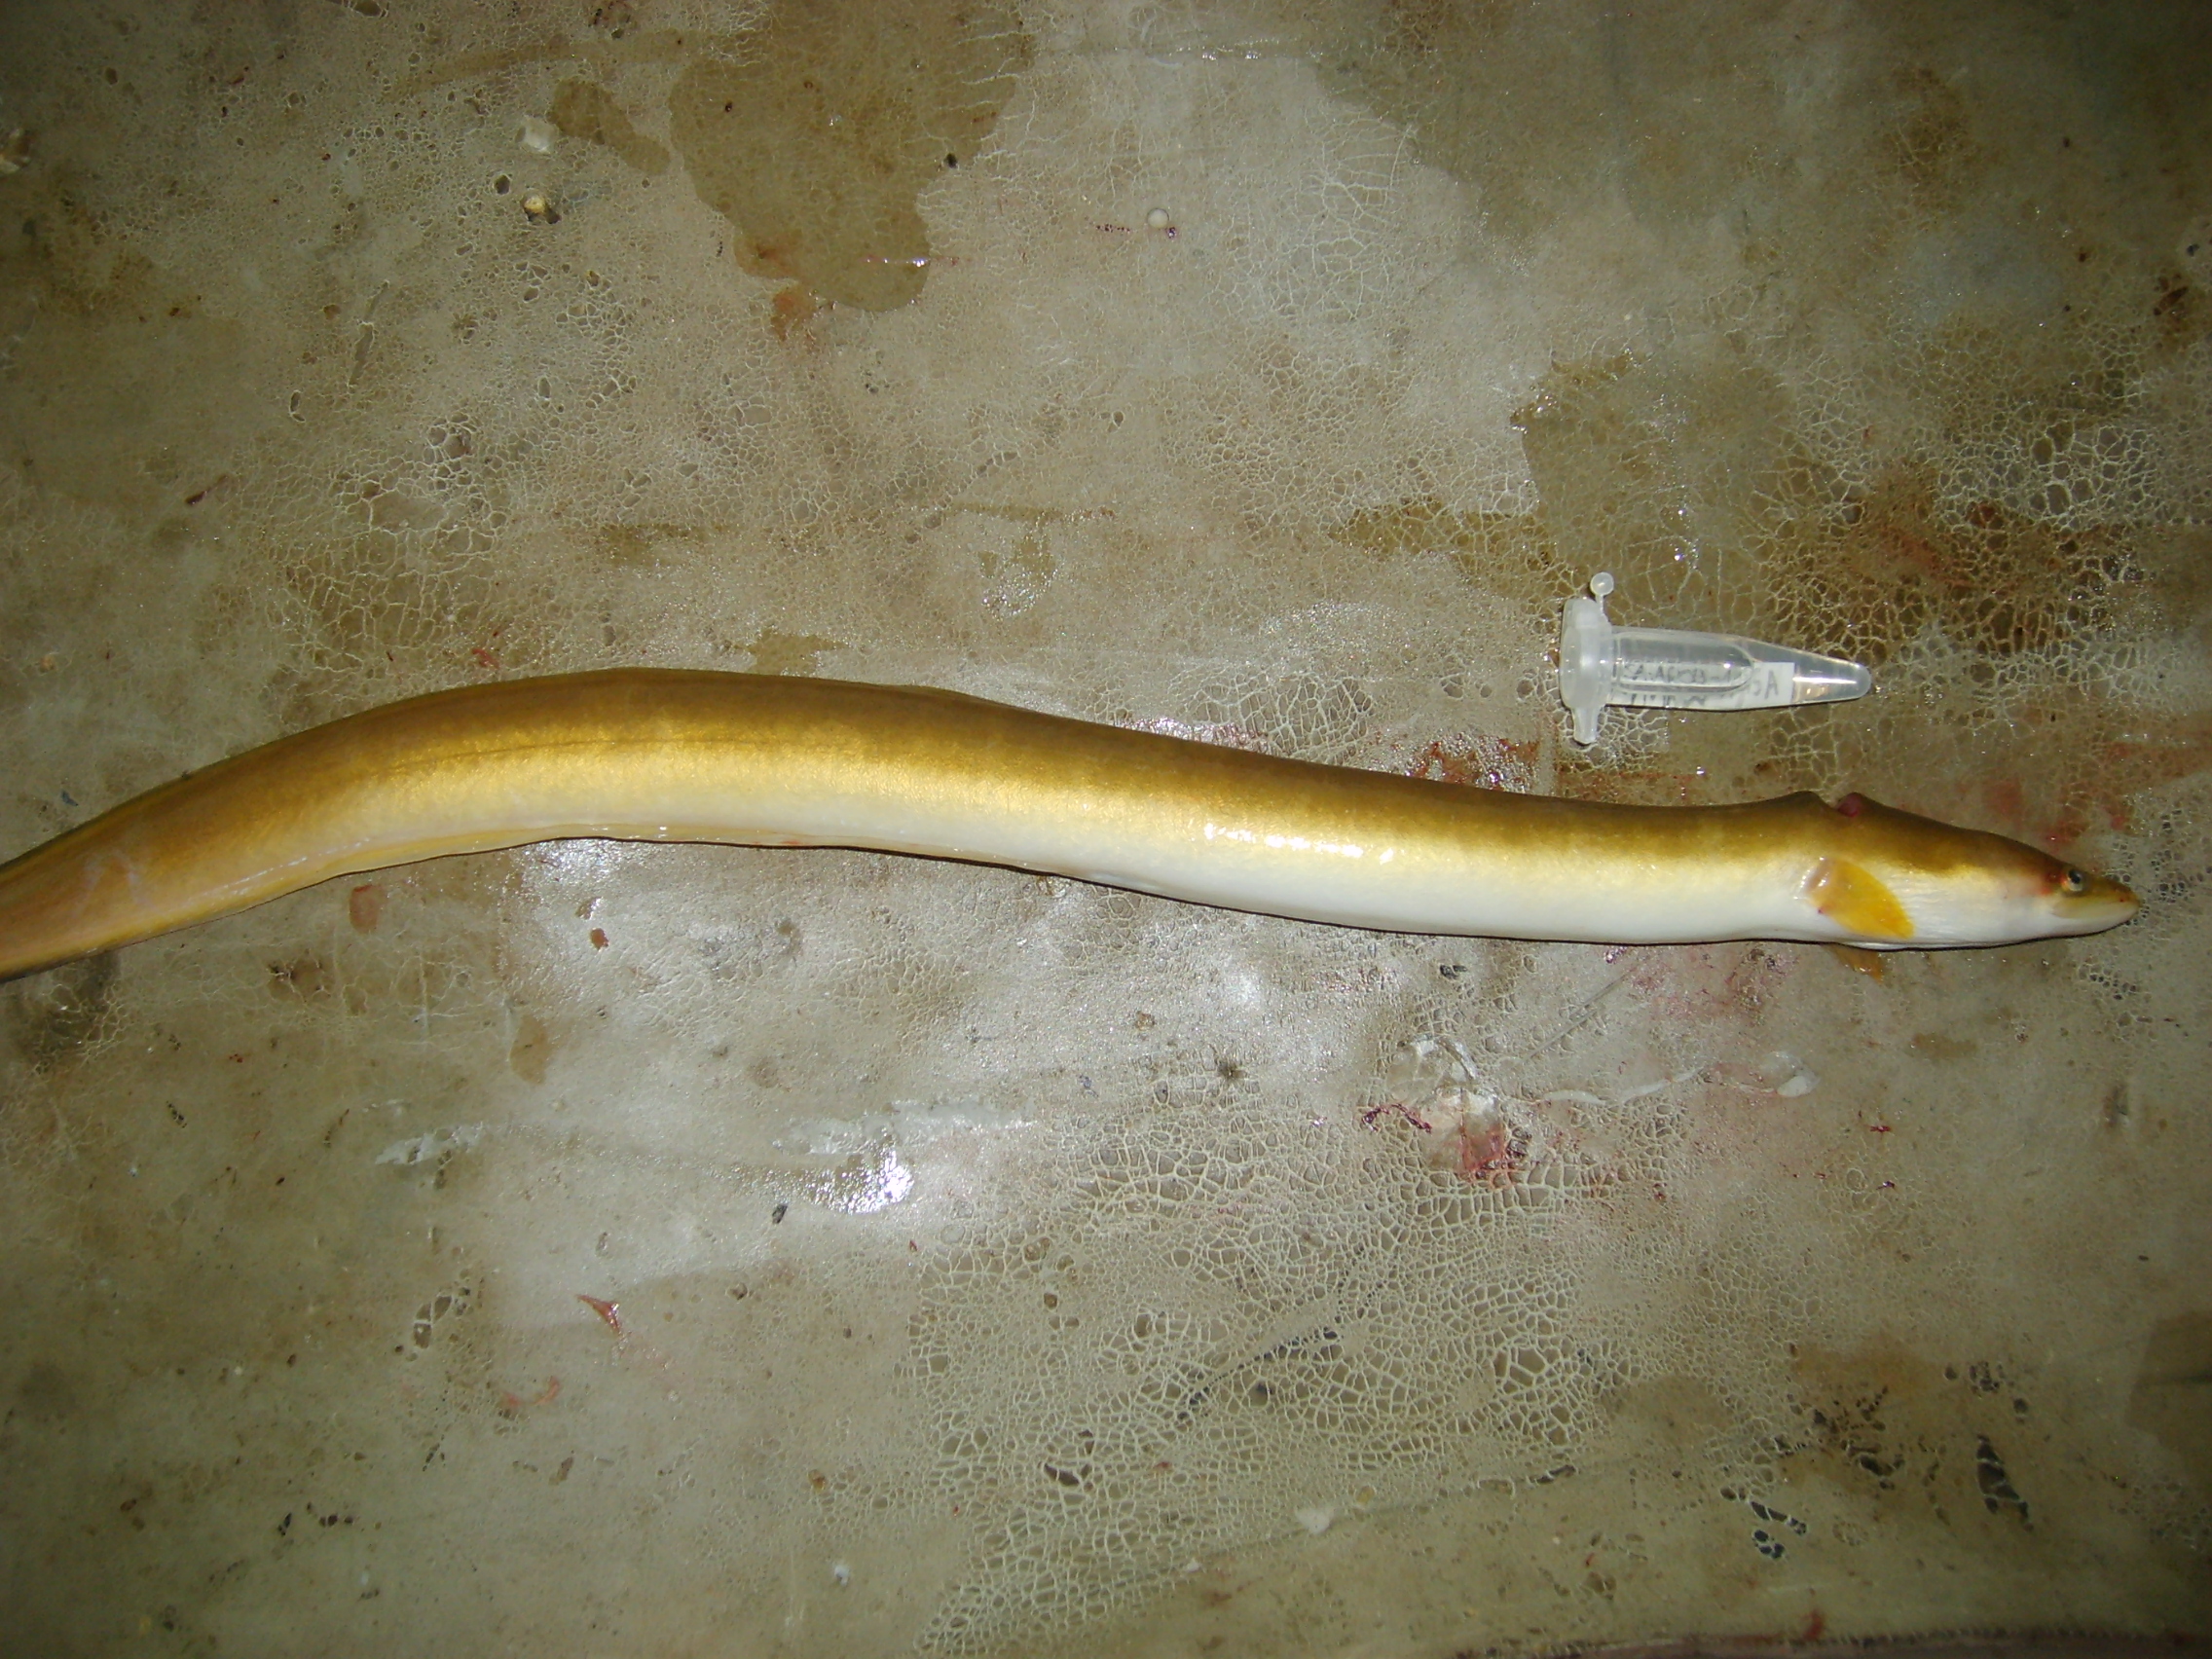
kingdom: Animalia
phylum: Chordata
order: Anguilliformes
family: Anguillidae
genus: Anguilla
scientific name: Anguilla mossambica
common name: African longfin eel
